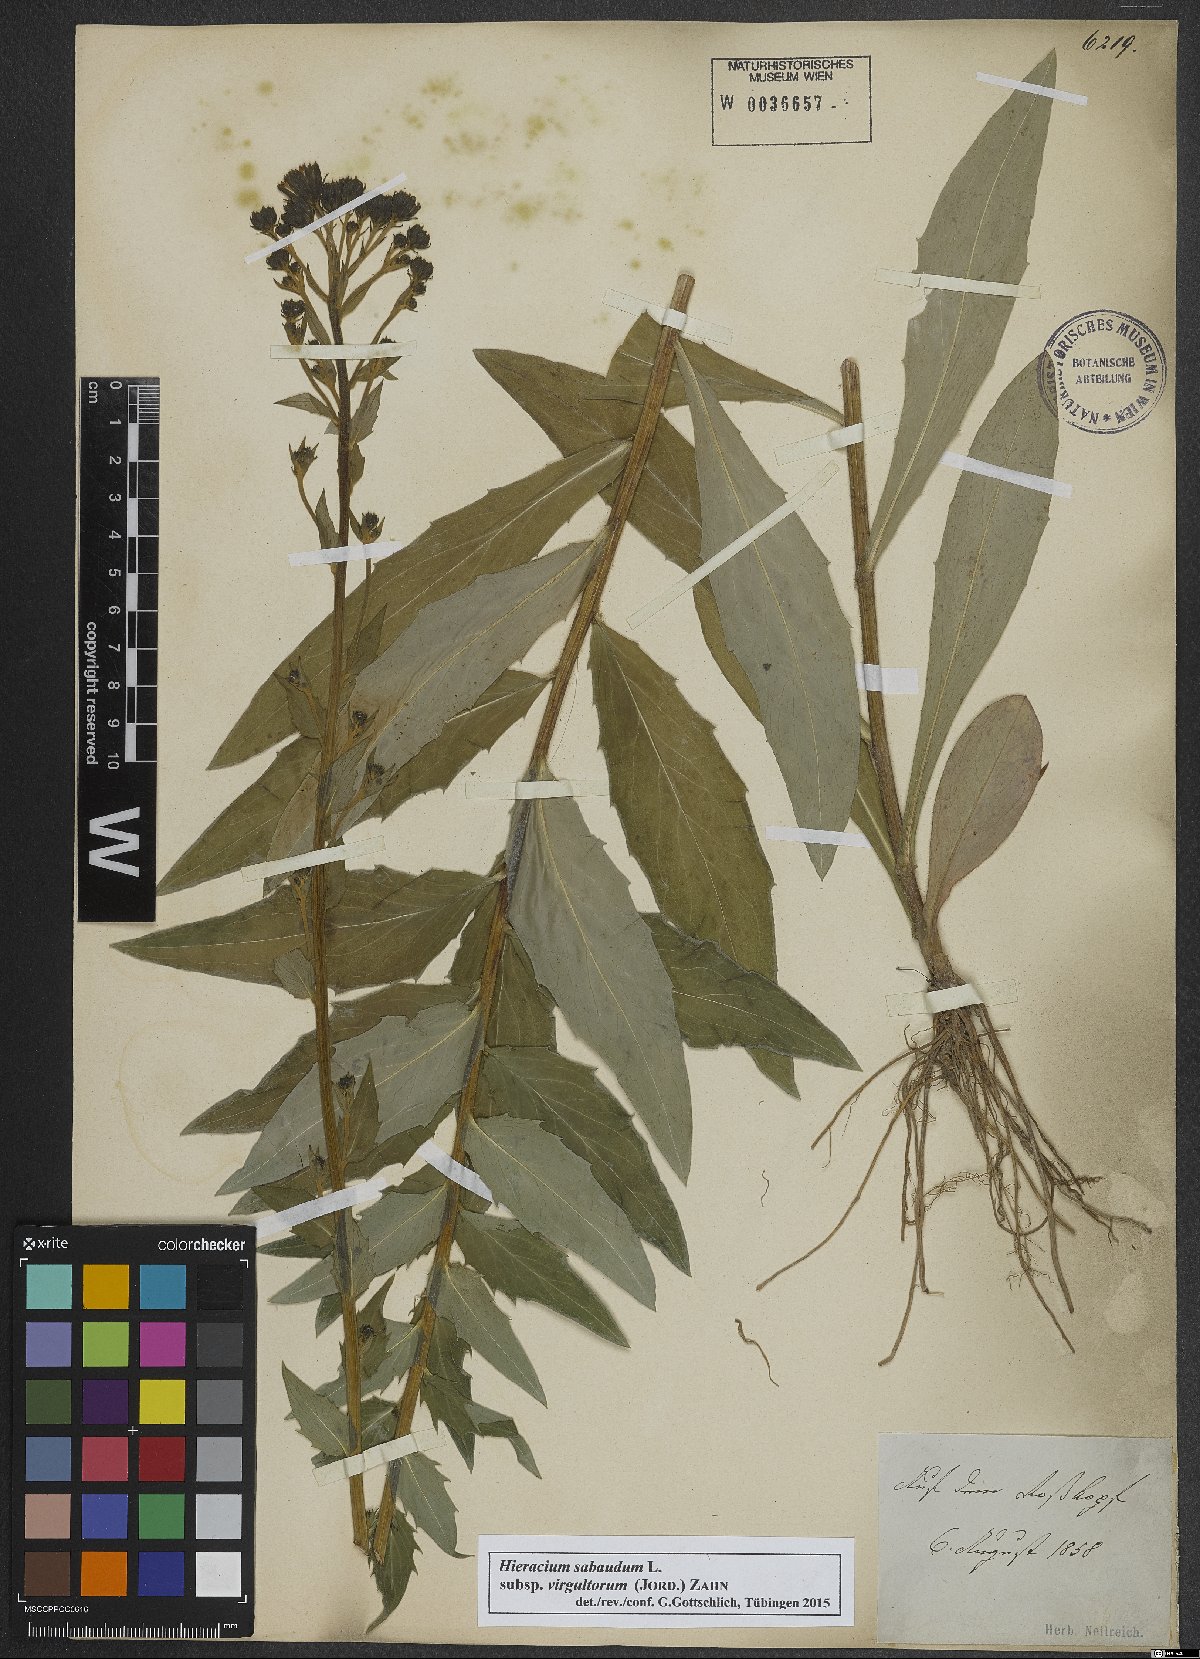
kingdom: Plantae
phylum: Tracheophyta
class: Magnoliopsida
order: Asterales
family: Asteraceae
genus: Hieracium
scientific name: Hieracium sabaudum
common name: New england hawkweed
